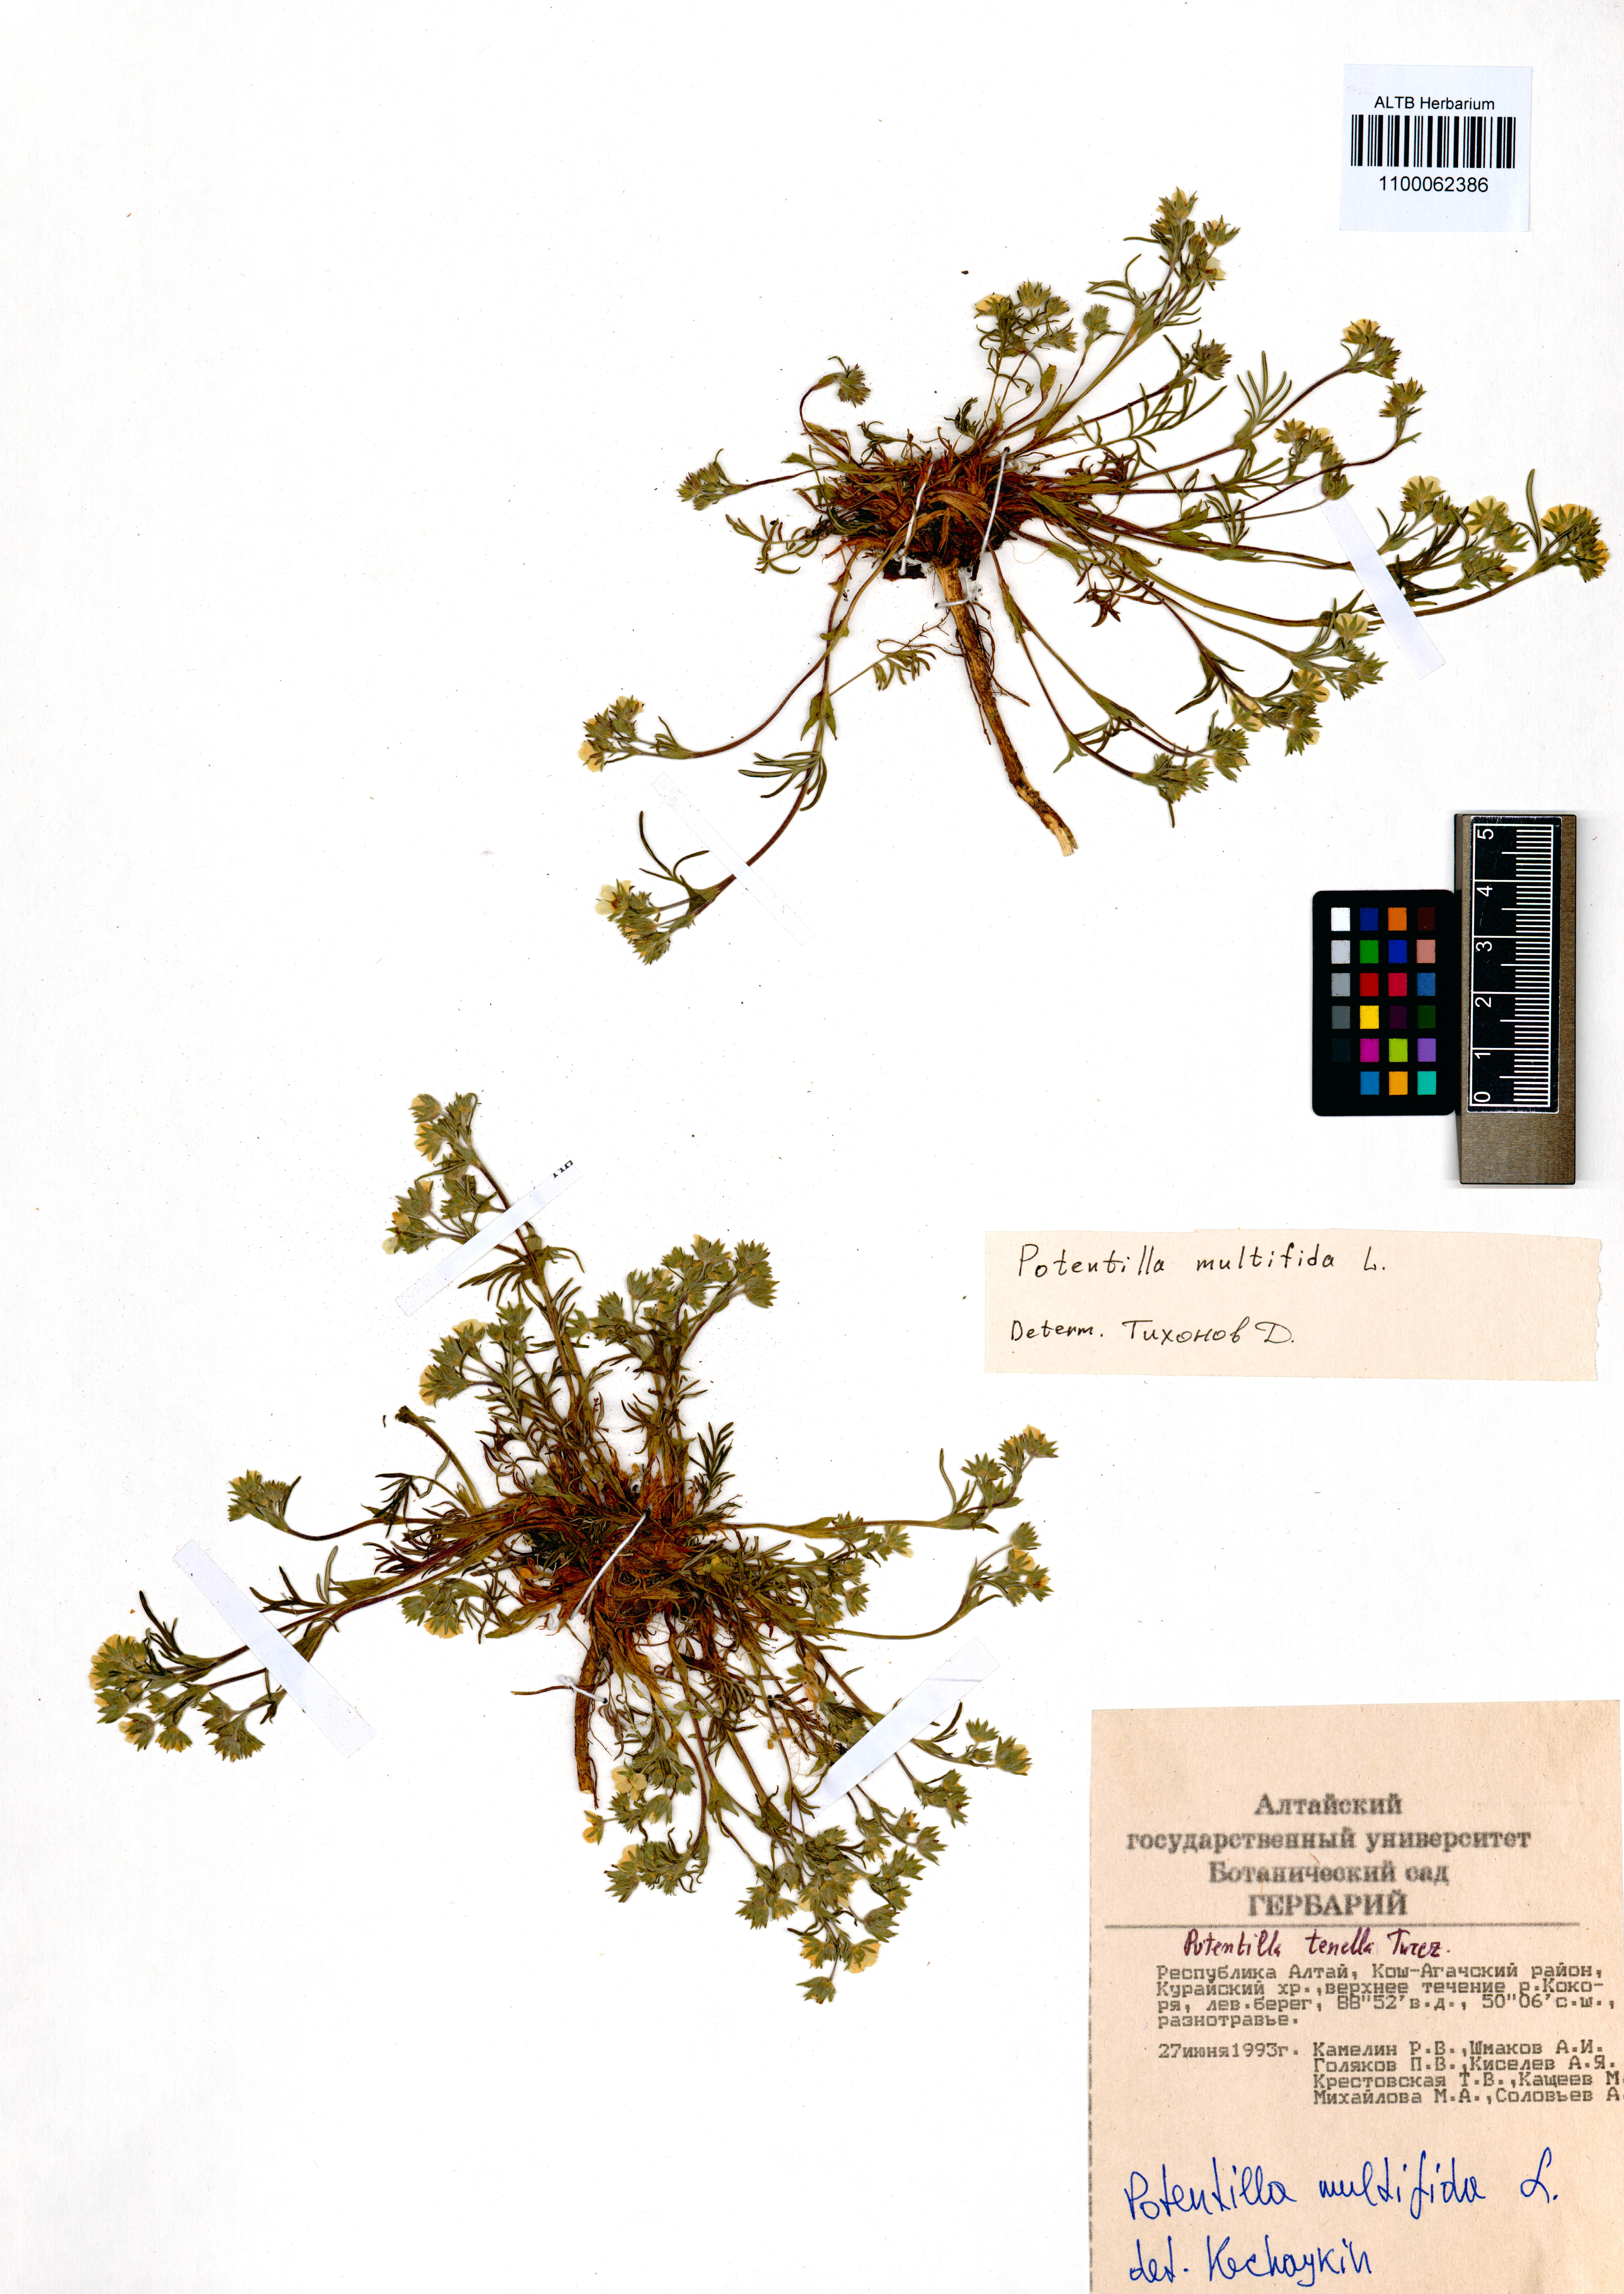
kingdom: Plantae
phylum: Tracheophyta
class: Magnoliopsida
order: Rosales
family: Rosaceae
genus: Potentilla
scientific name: Potentilla multifida
